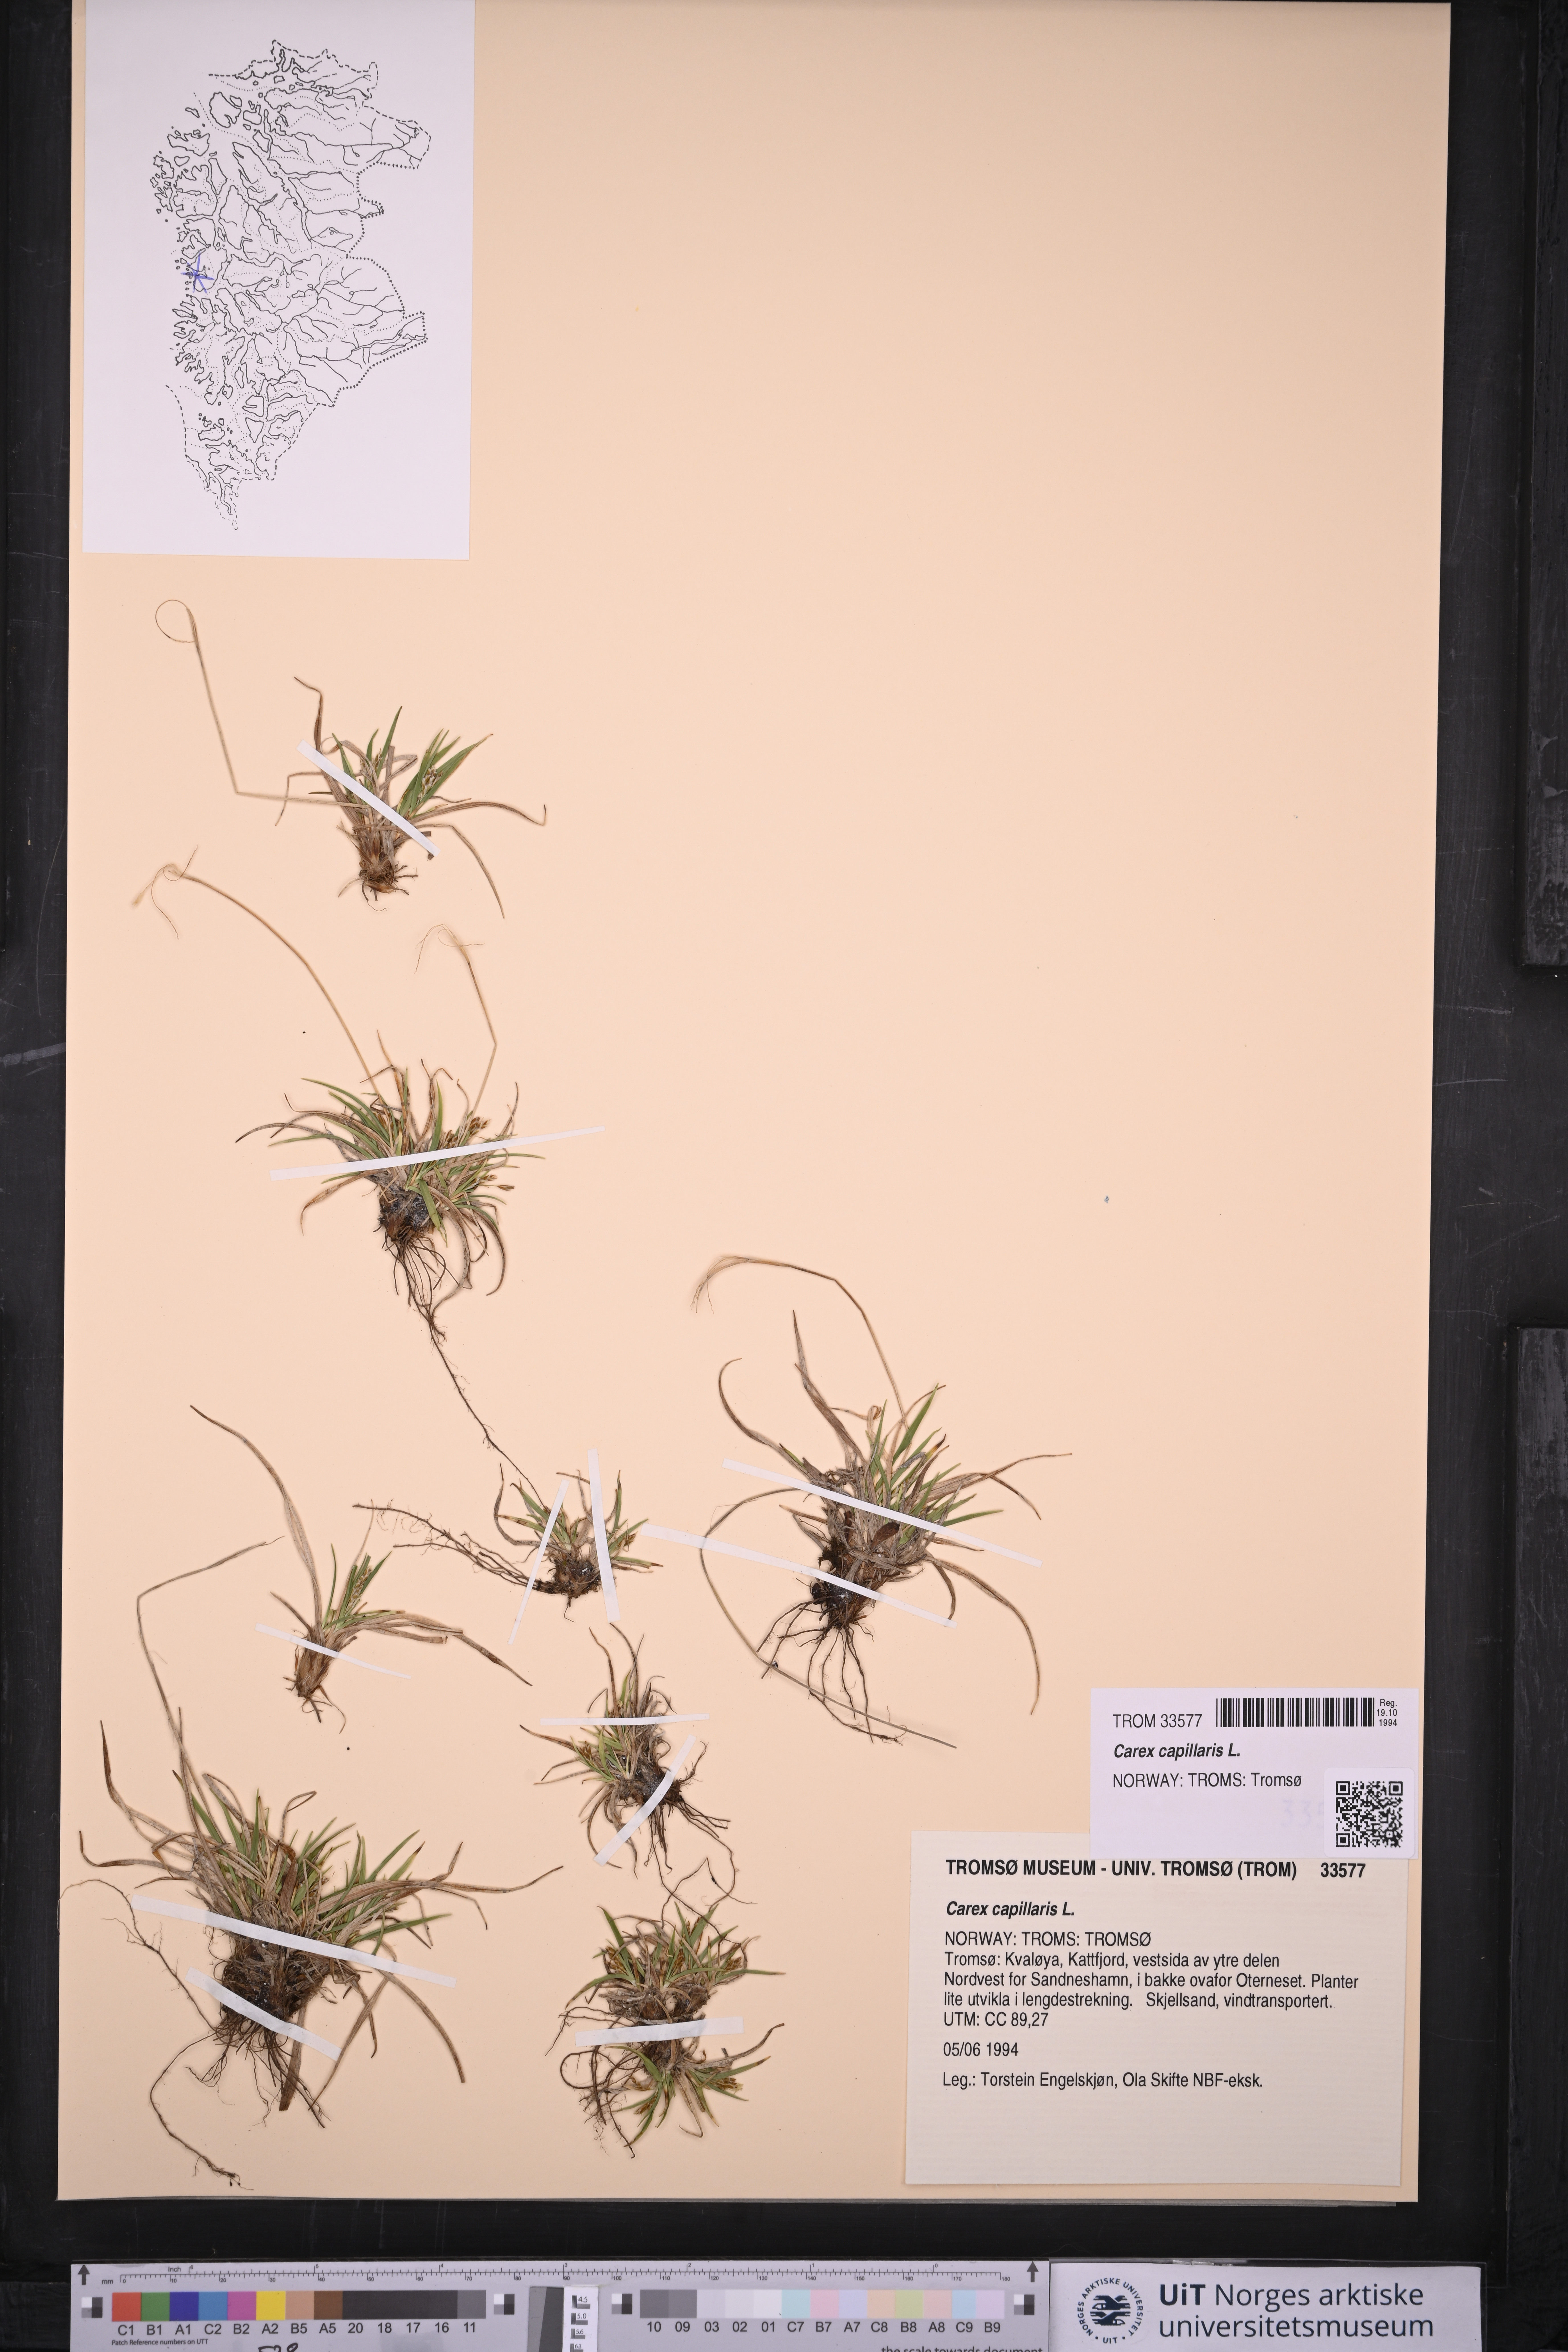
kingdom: Plantae
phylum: Tracheophyta
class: Liliopsida
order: Poales
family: Cyperaceae
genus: Carex
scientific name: Carex capillaris
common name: Hair sedge
